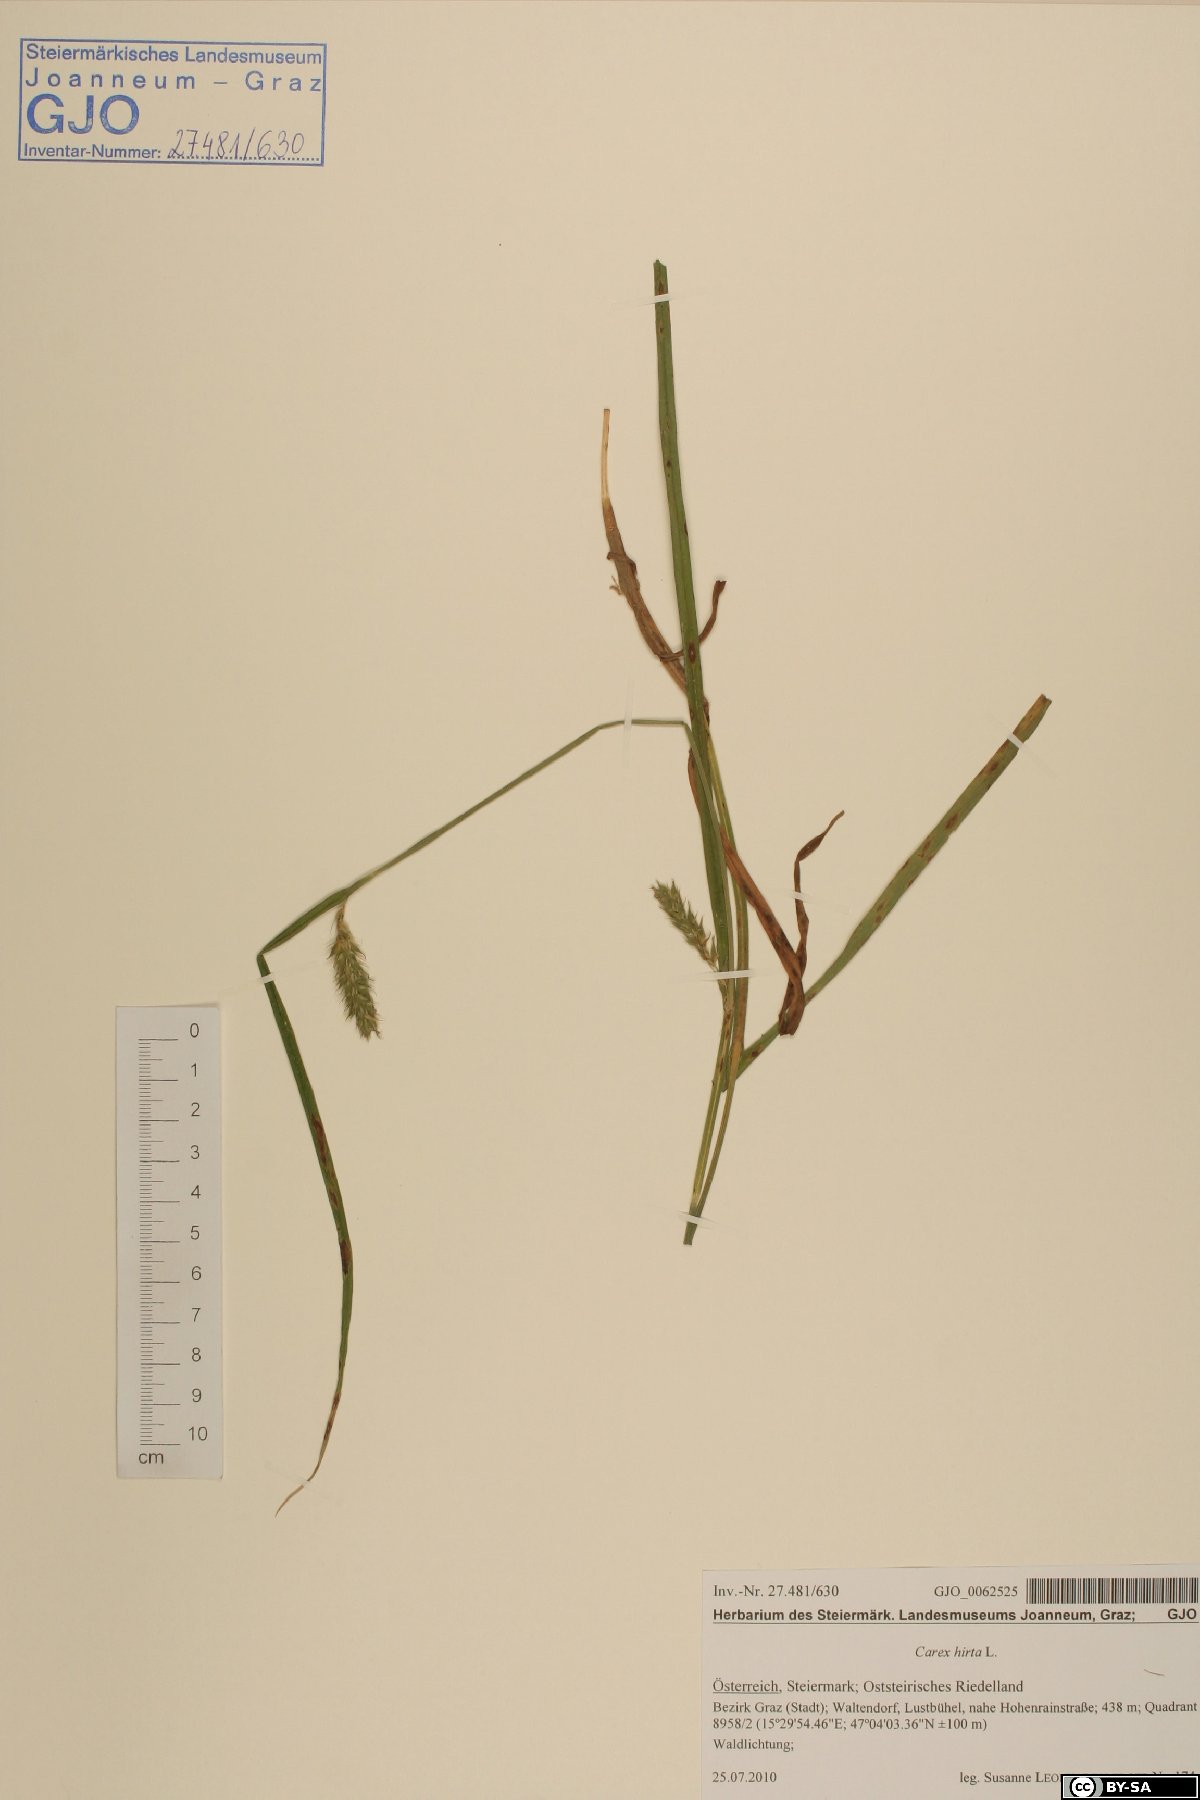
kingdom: Plantae
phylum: Tracheophyta
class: Liliopsida
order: Poales
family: Cyperaceae
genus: Carex
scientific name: Carex hirta
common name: Hairy sedge
